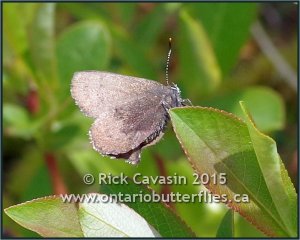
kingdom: Animalia
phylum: Arthropoda
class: Insecta
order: Lepidoptera
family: Lycaenidae
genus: Incisalia
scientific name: Incisalia irioides
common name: Brown Elfin
